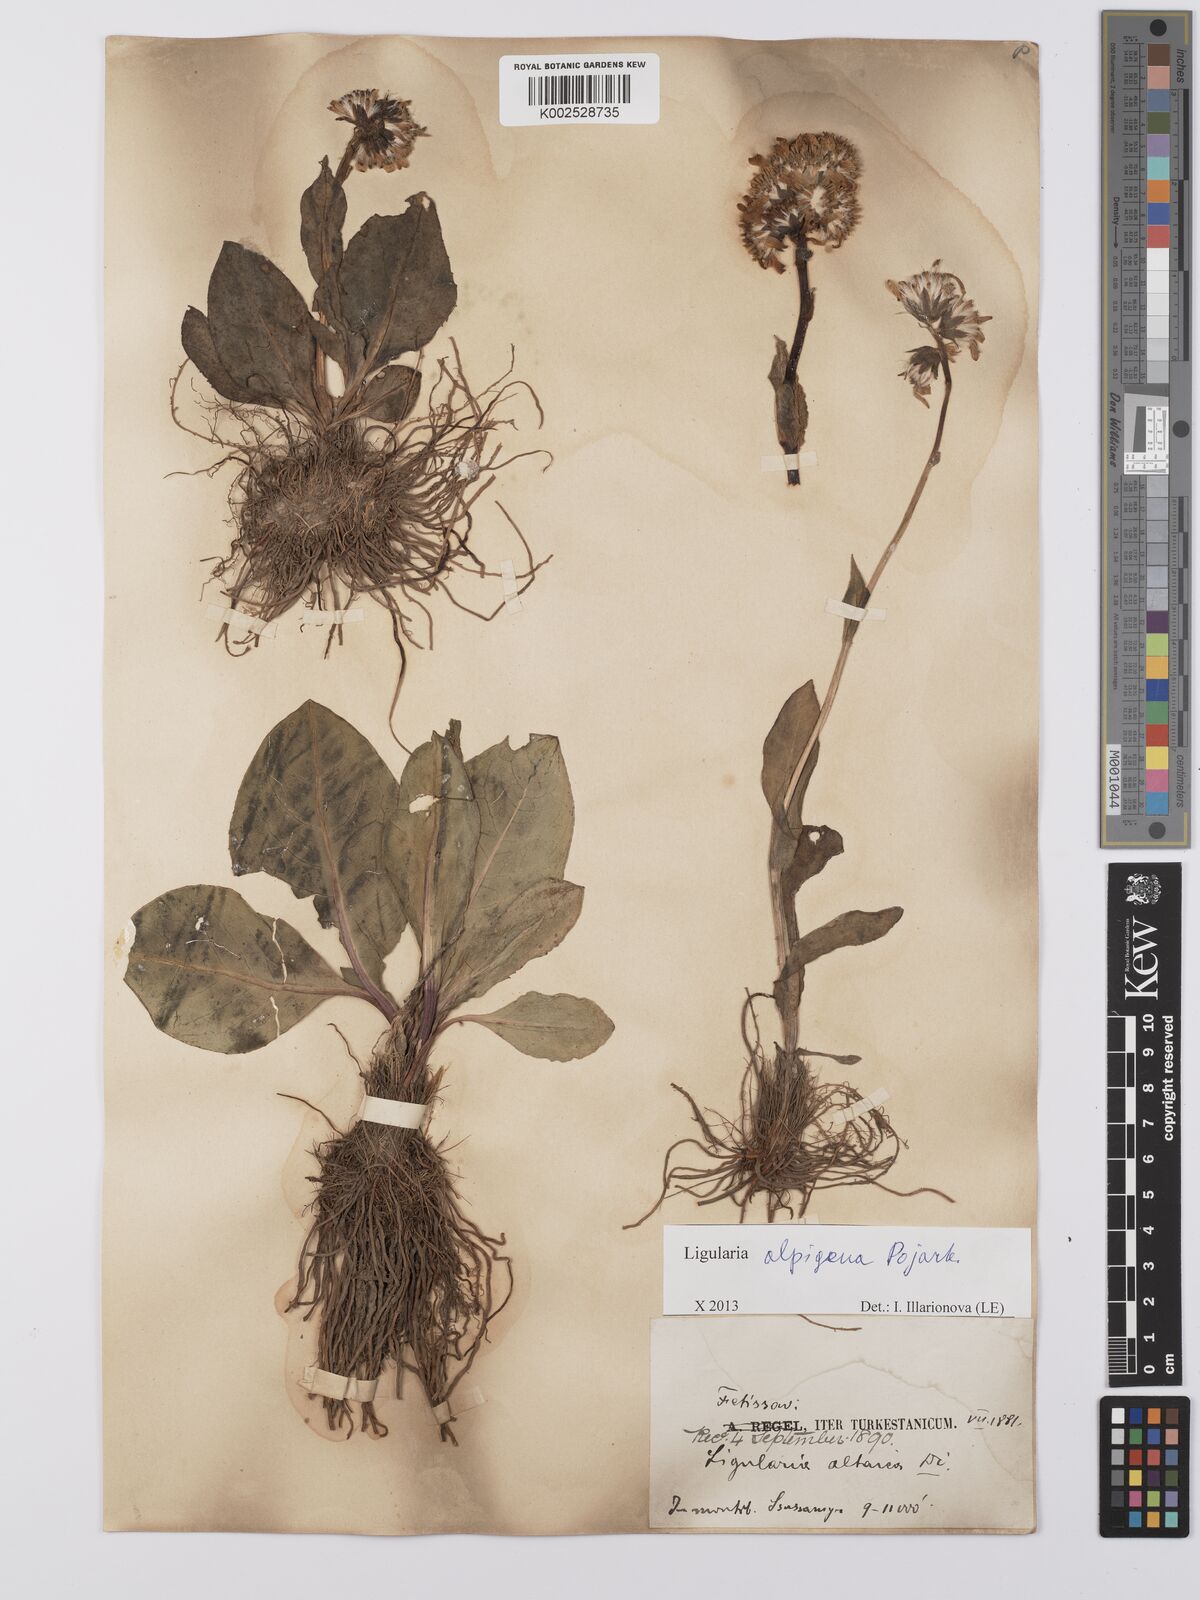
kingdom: Plantae
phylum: Tracheophyta
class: Magnoliopsida
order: Asterales
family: Asteraceae
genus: Ligularia
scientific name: Ligularia alpigena
